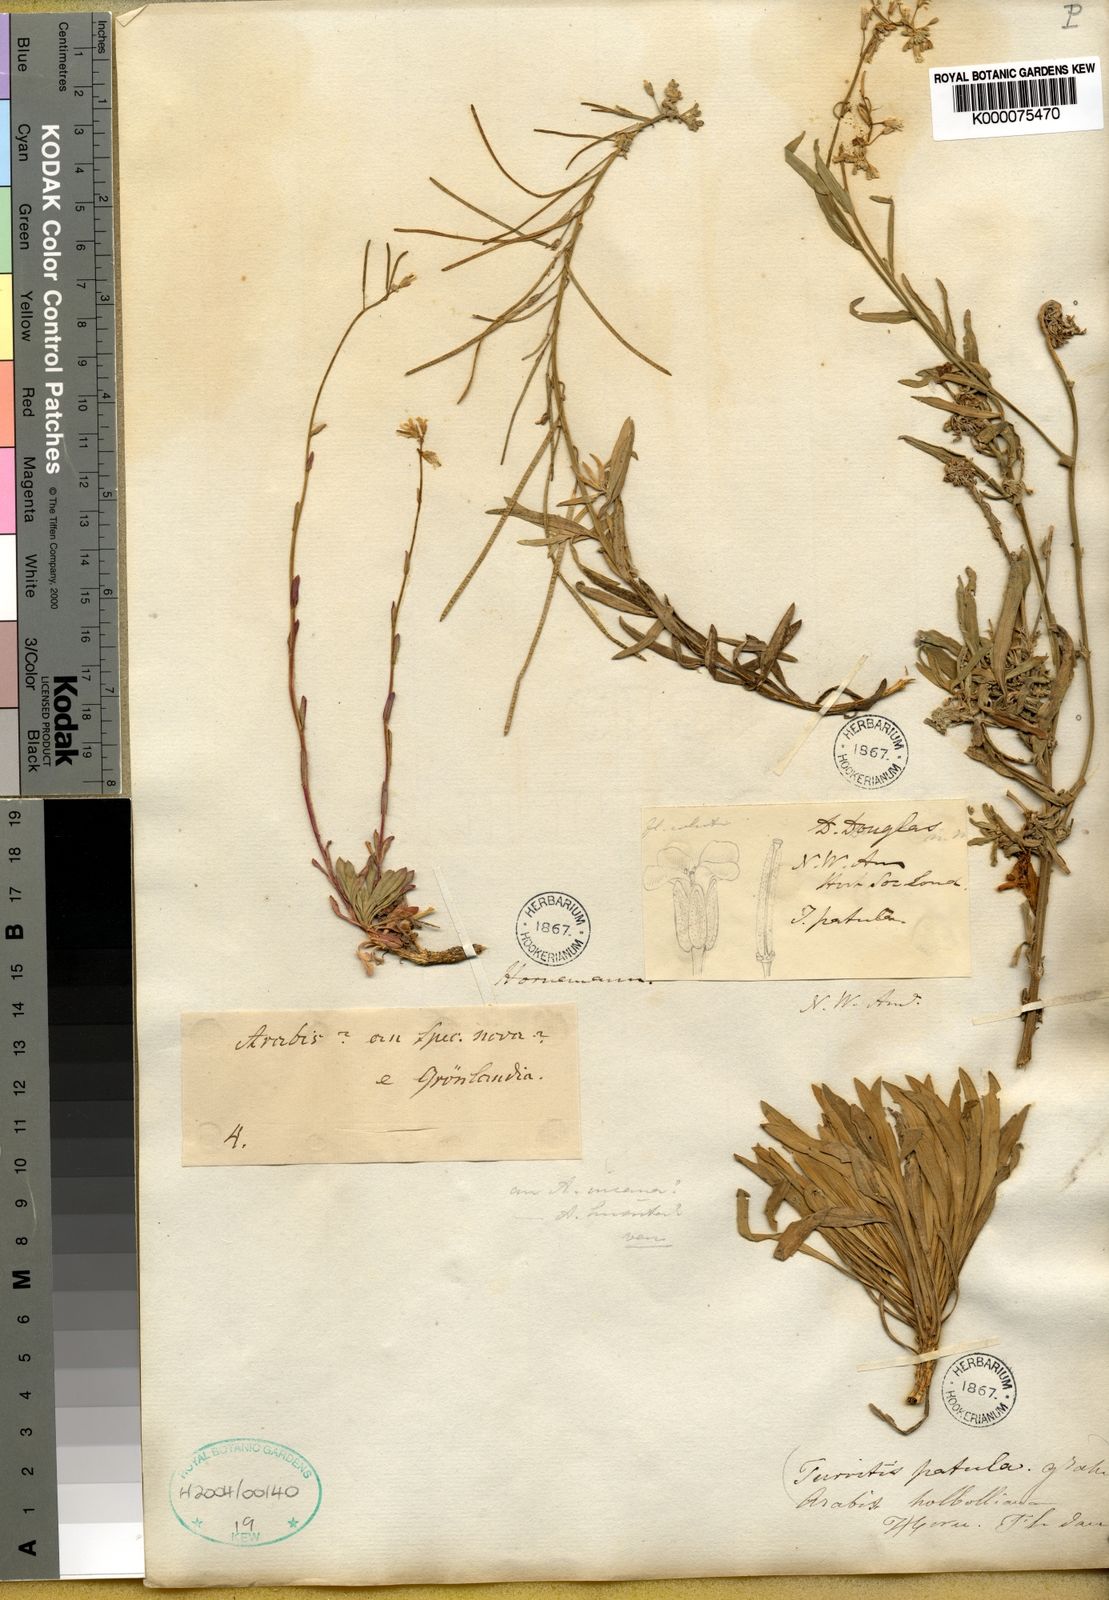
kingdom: Plantae
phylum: Tracheophyta
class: Magnoliopsida
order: Brassicales
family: Brassicaceae
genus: Boechera
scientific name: Boechera fendleri
